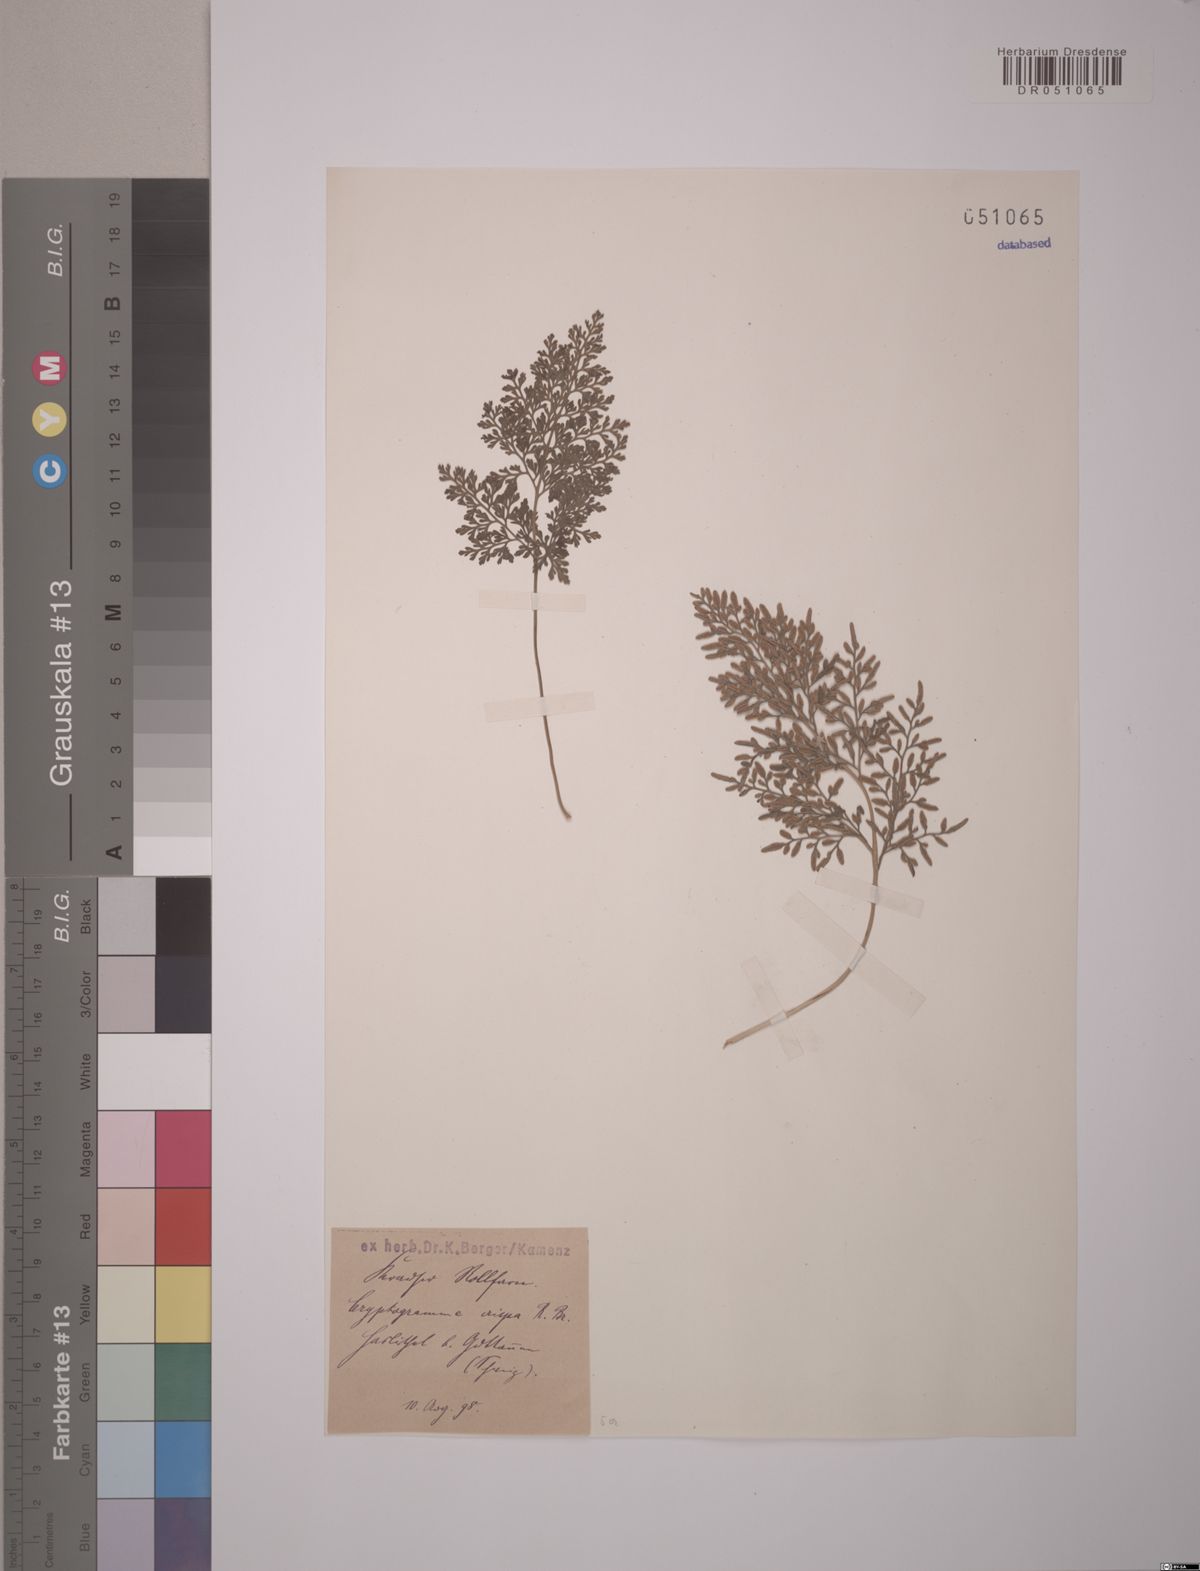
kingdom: Plantae
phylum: Tracheophyta
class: Polypodiopsida
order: Polypodiales
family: Pteridaceae
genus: Cryptogramma
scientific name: Cryptogramma crispa
